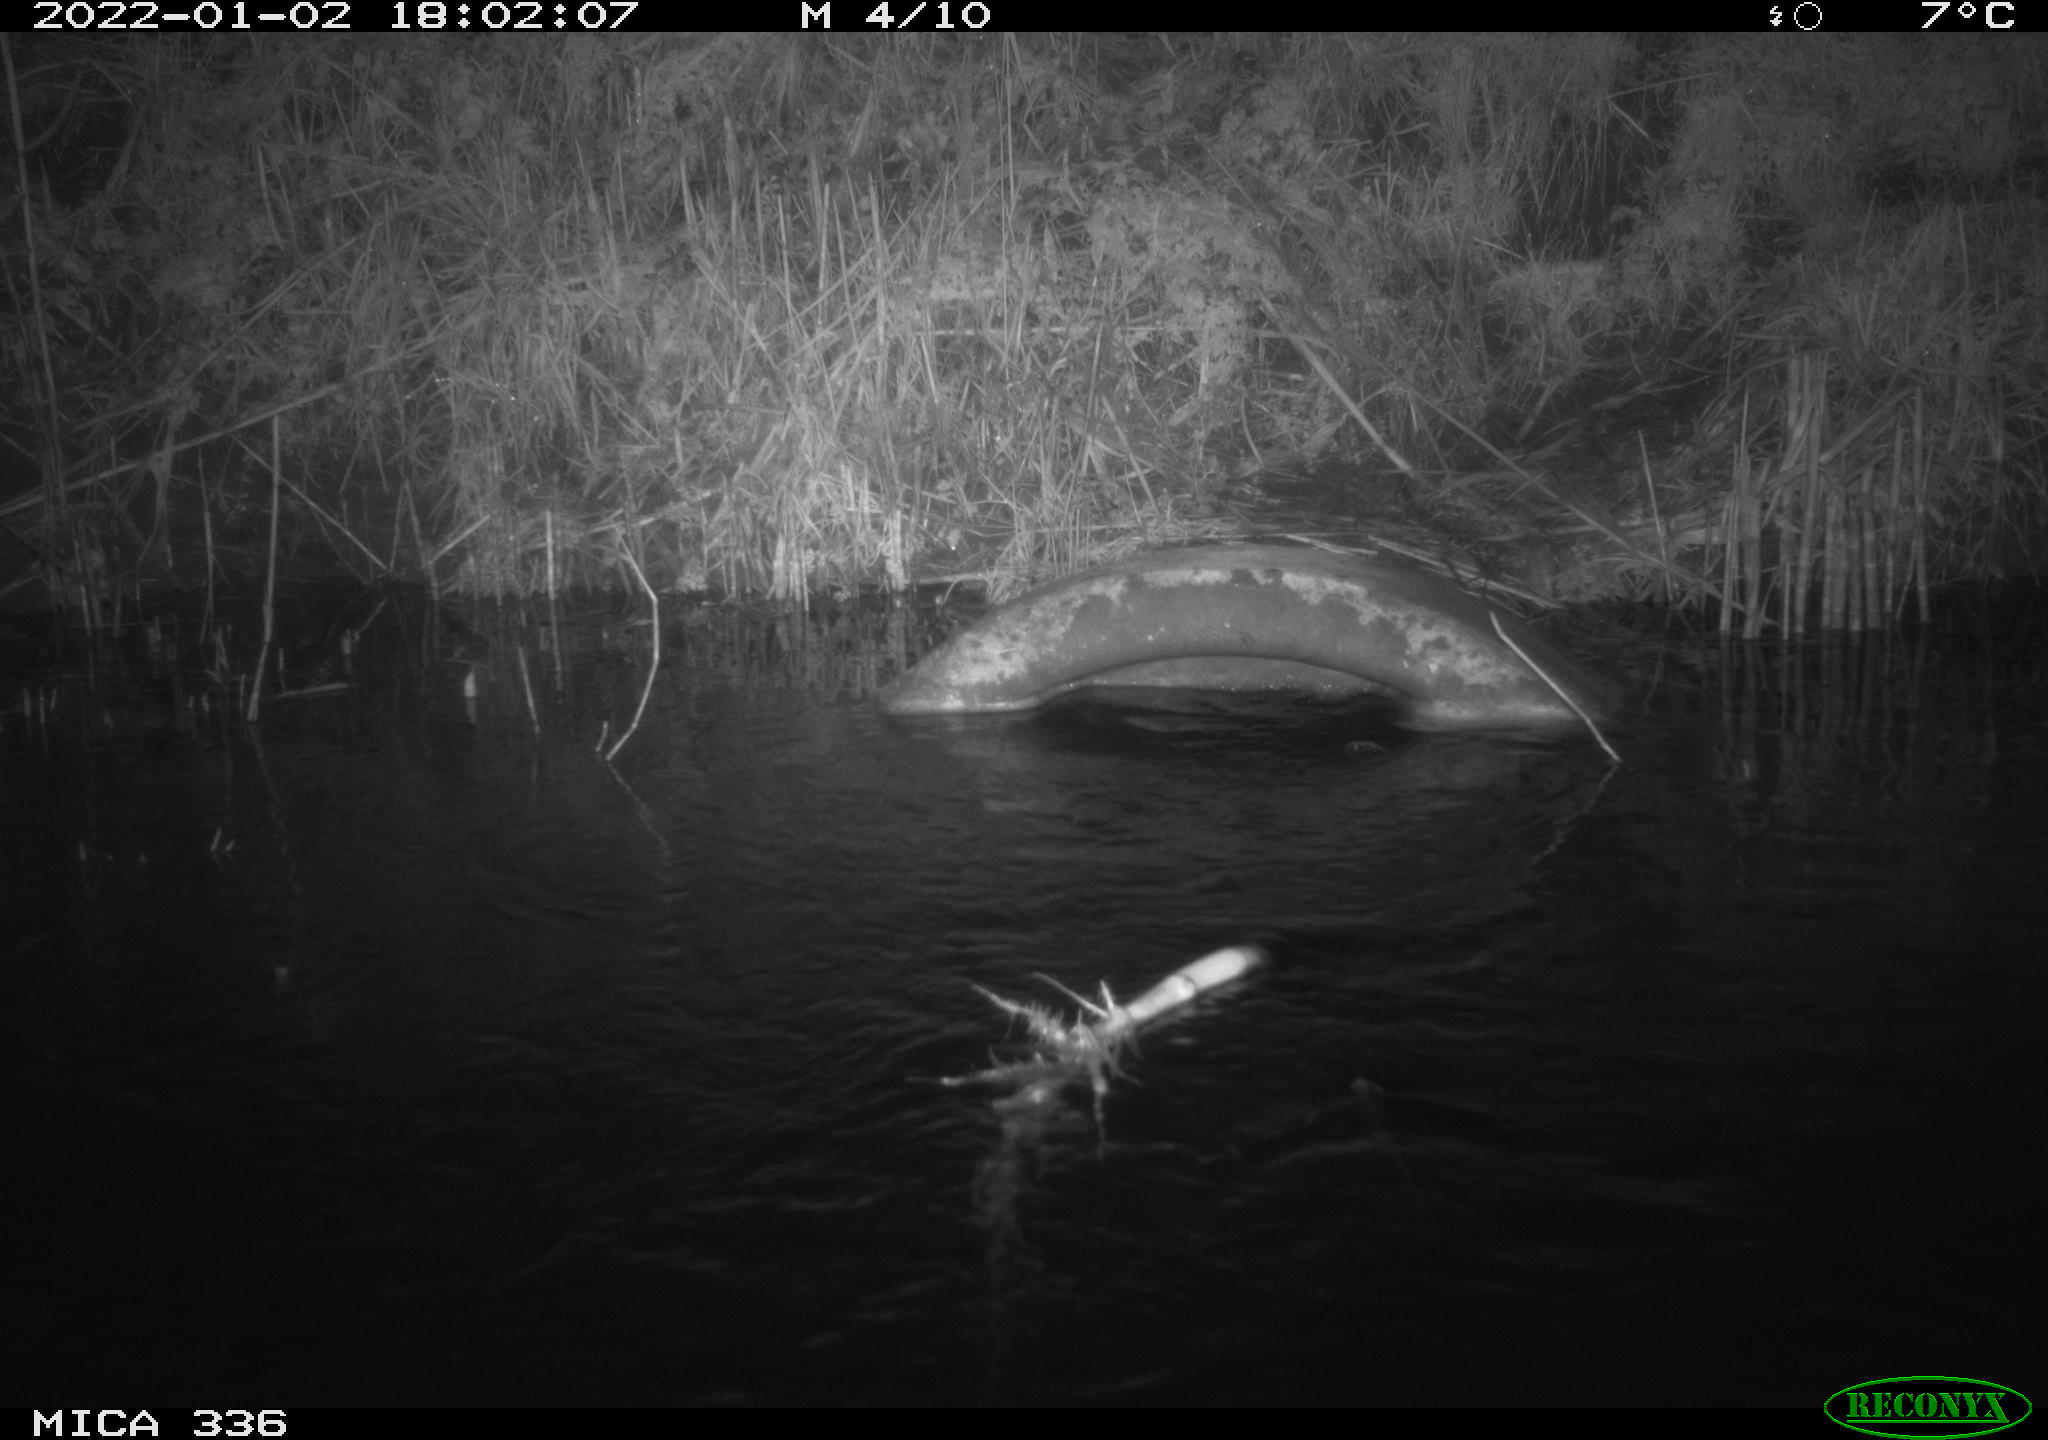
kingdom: Animalia
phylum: Chordata
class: Aves
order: Gruiformes
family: Rallidae
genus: Gallinula
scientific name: Gallinula chloropus
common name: Common moorhen
